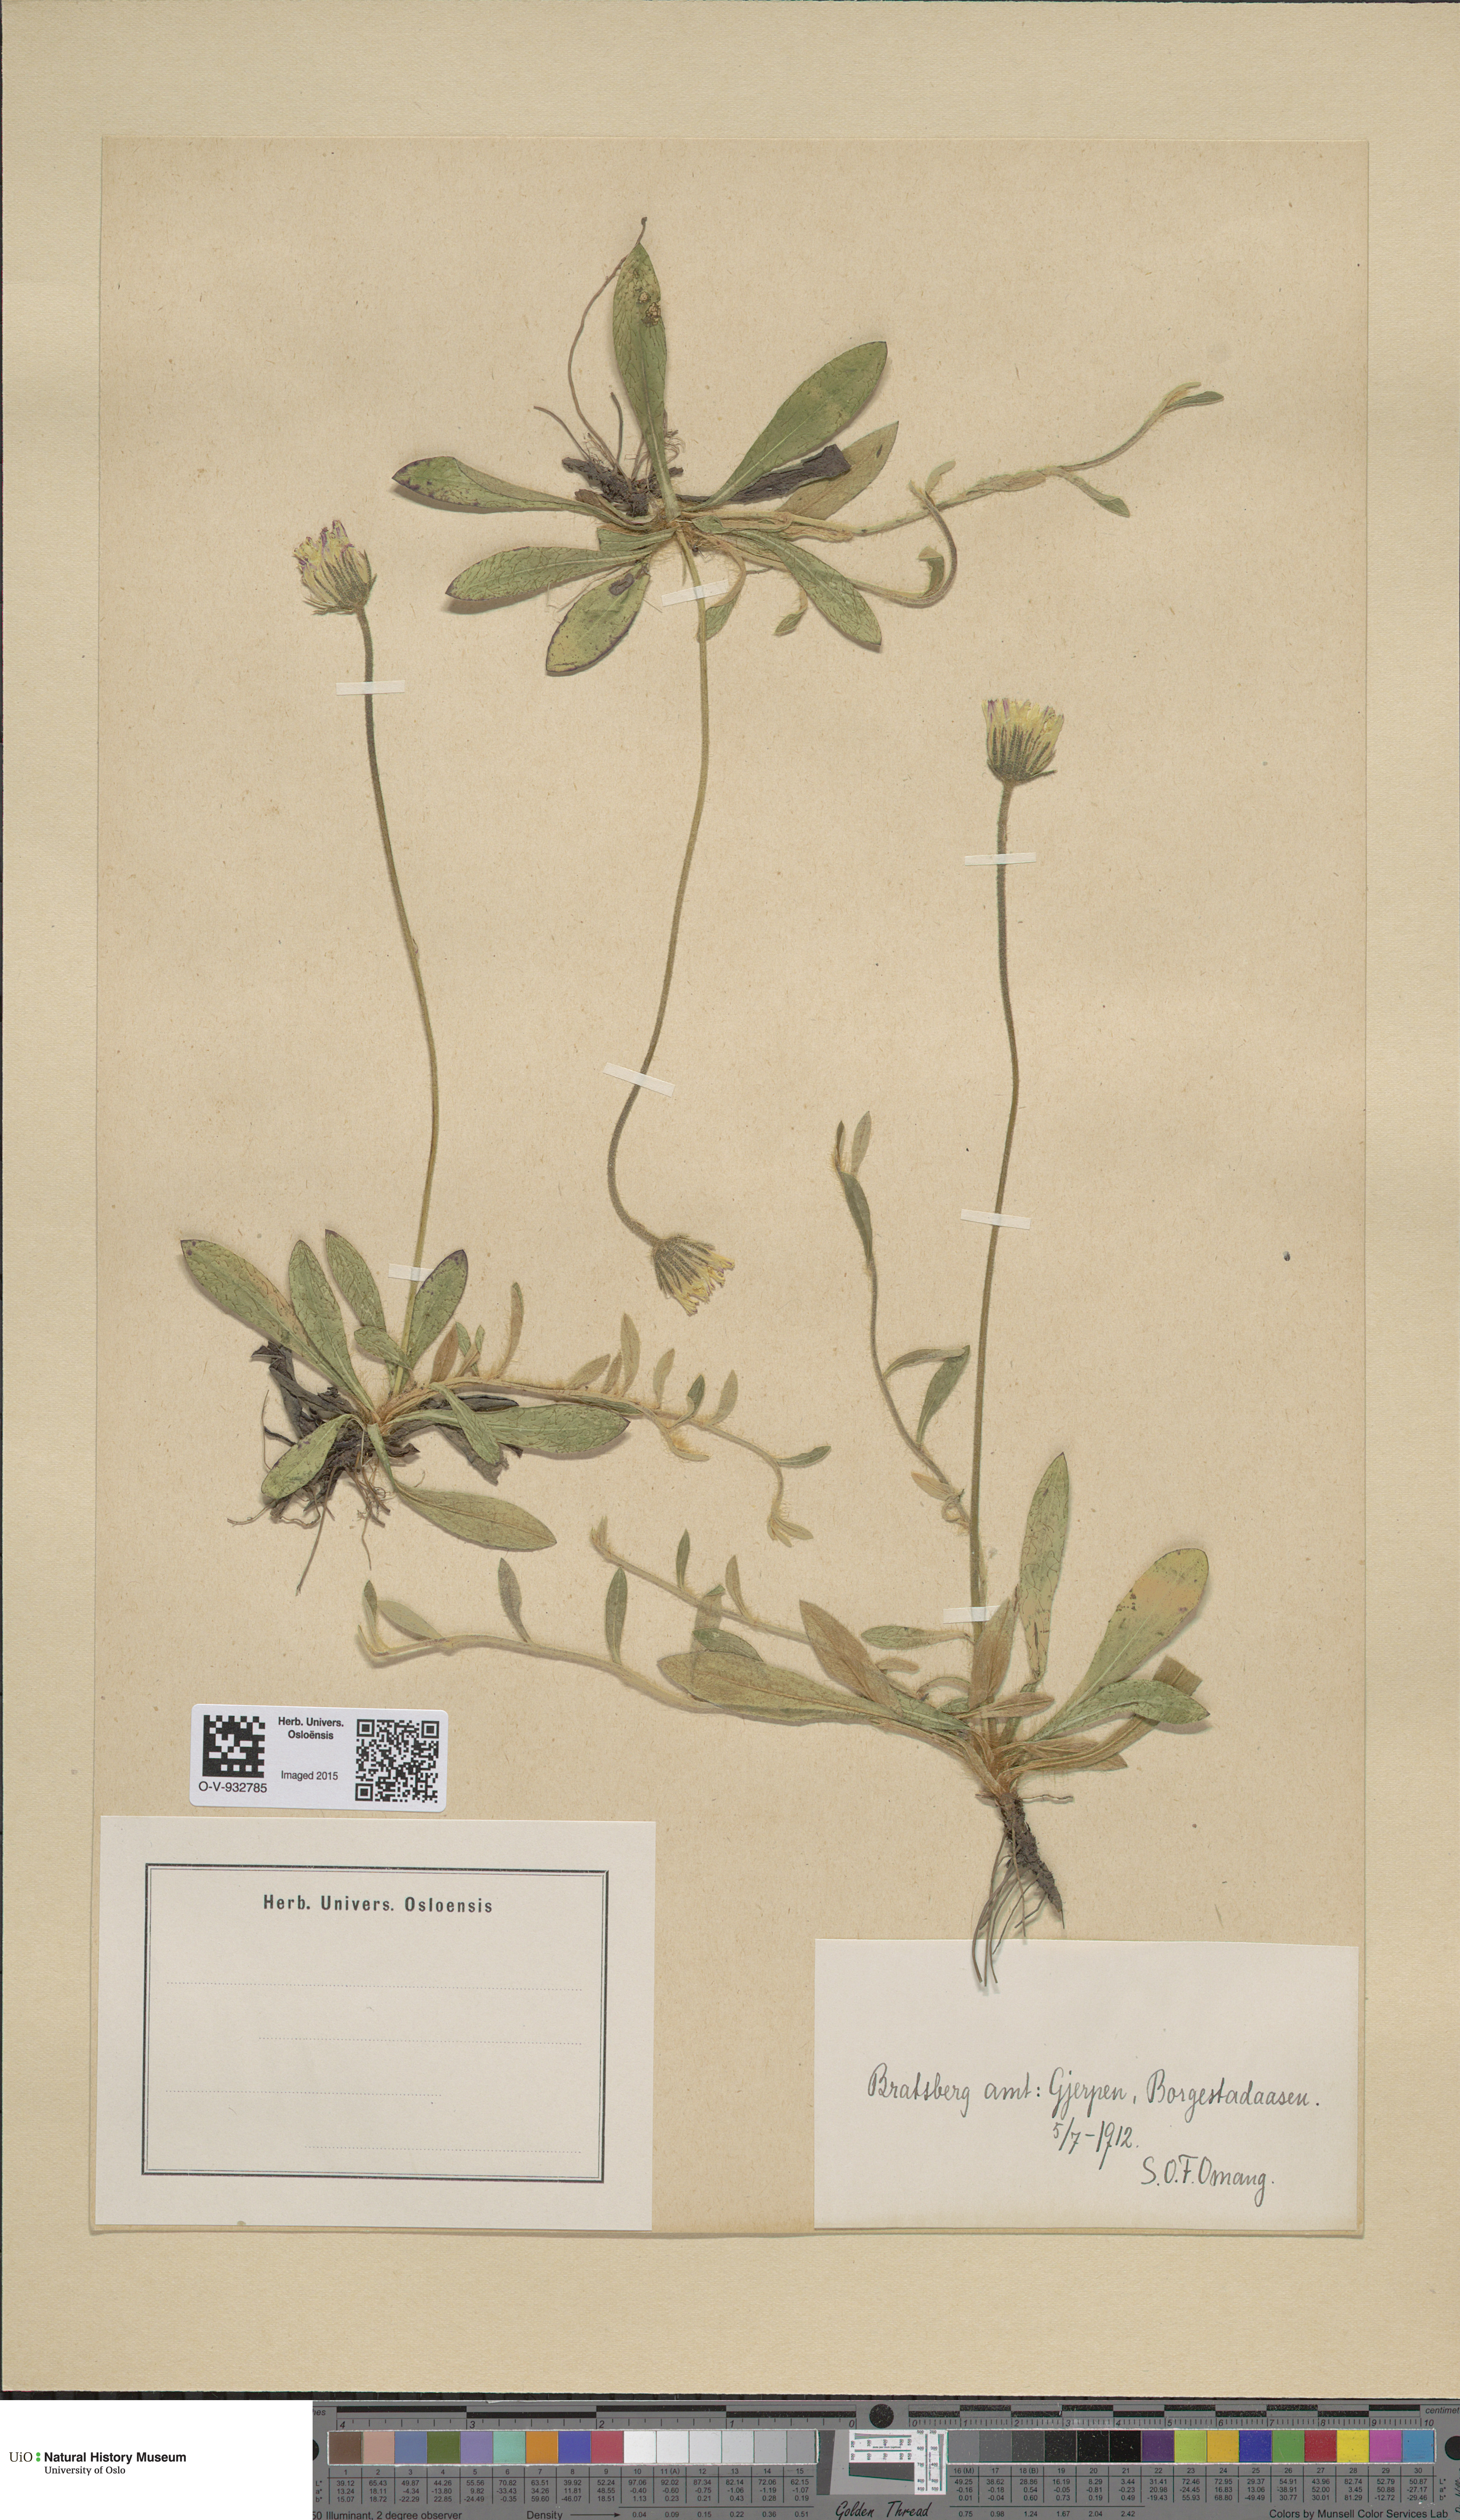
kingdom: Plantae
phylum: Tracheophyta
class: Magnoliopsida
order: Asterales
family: Asteraceae
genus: Pilosella
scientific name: Pilosella officinarum
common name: Mouse-ear hawkweed
